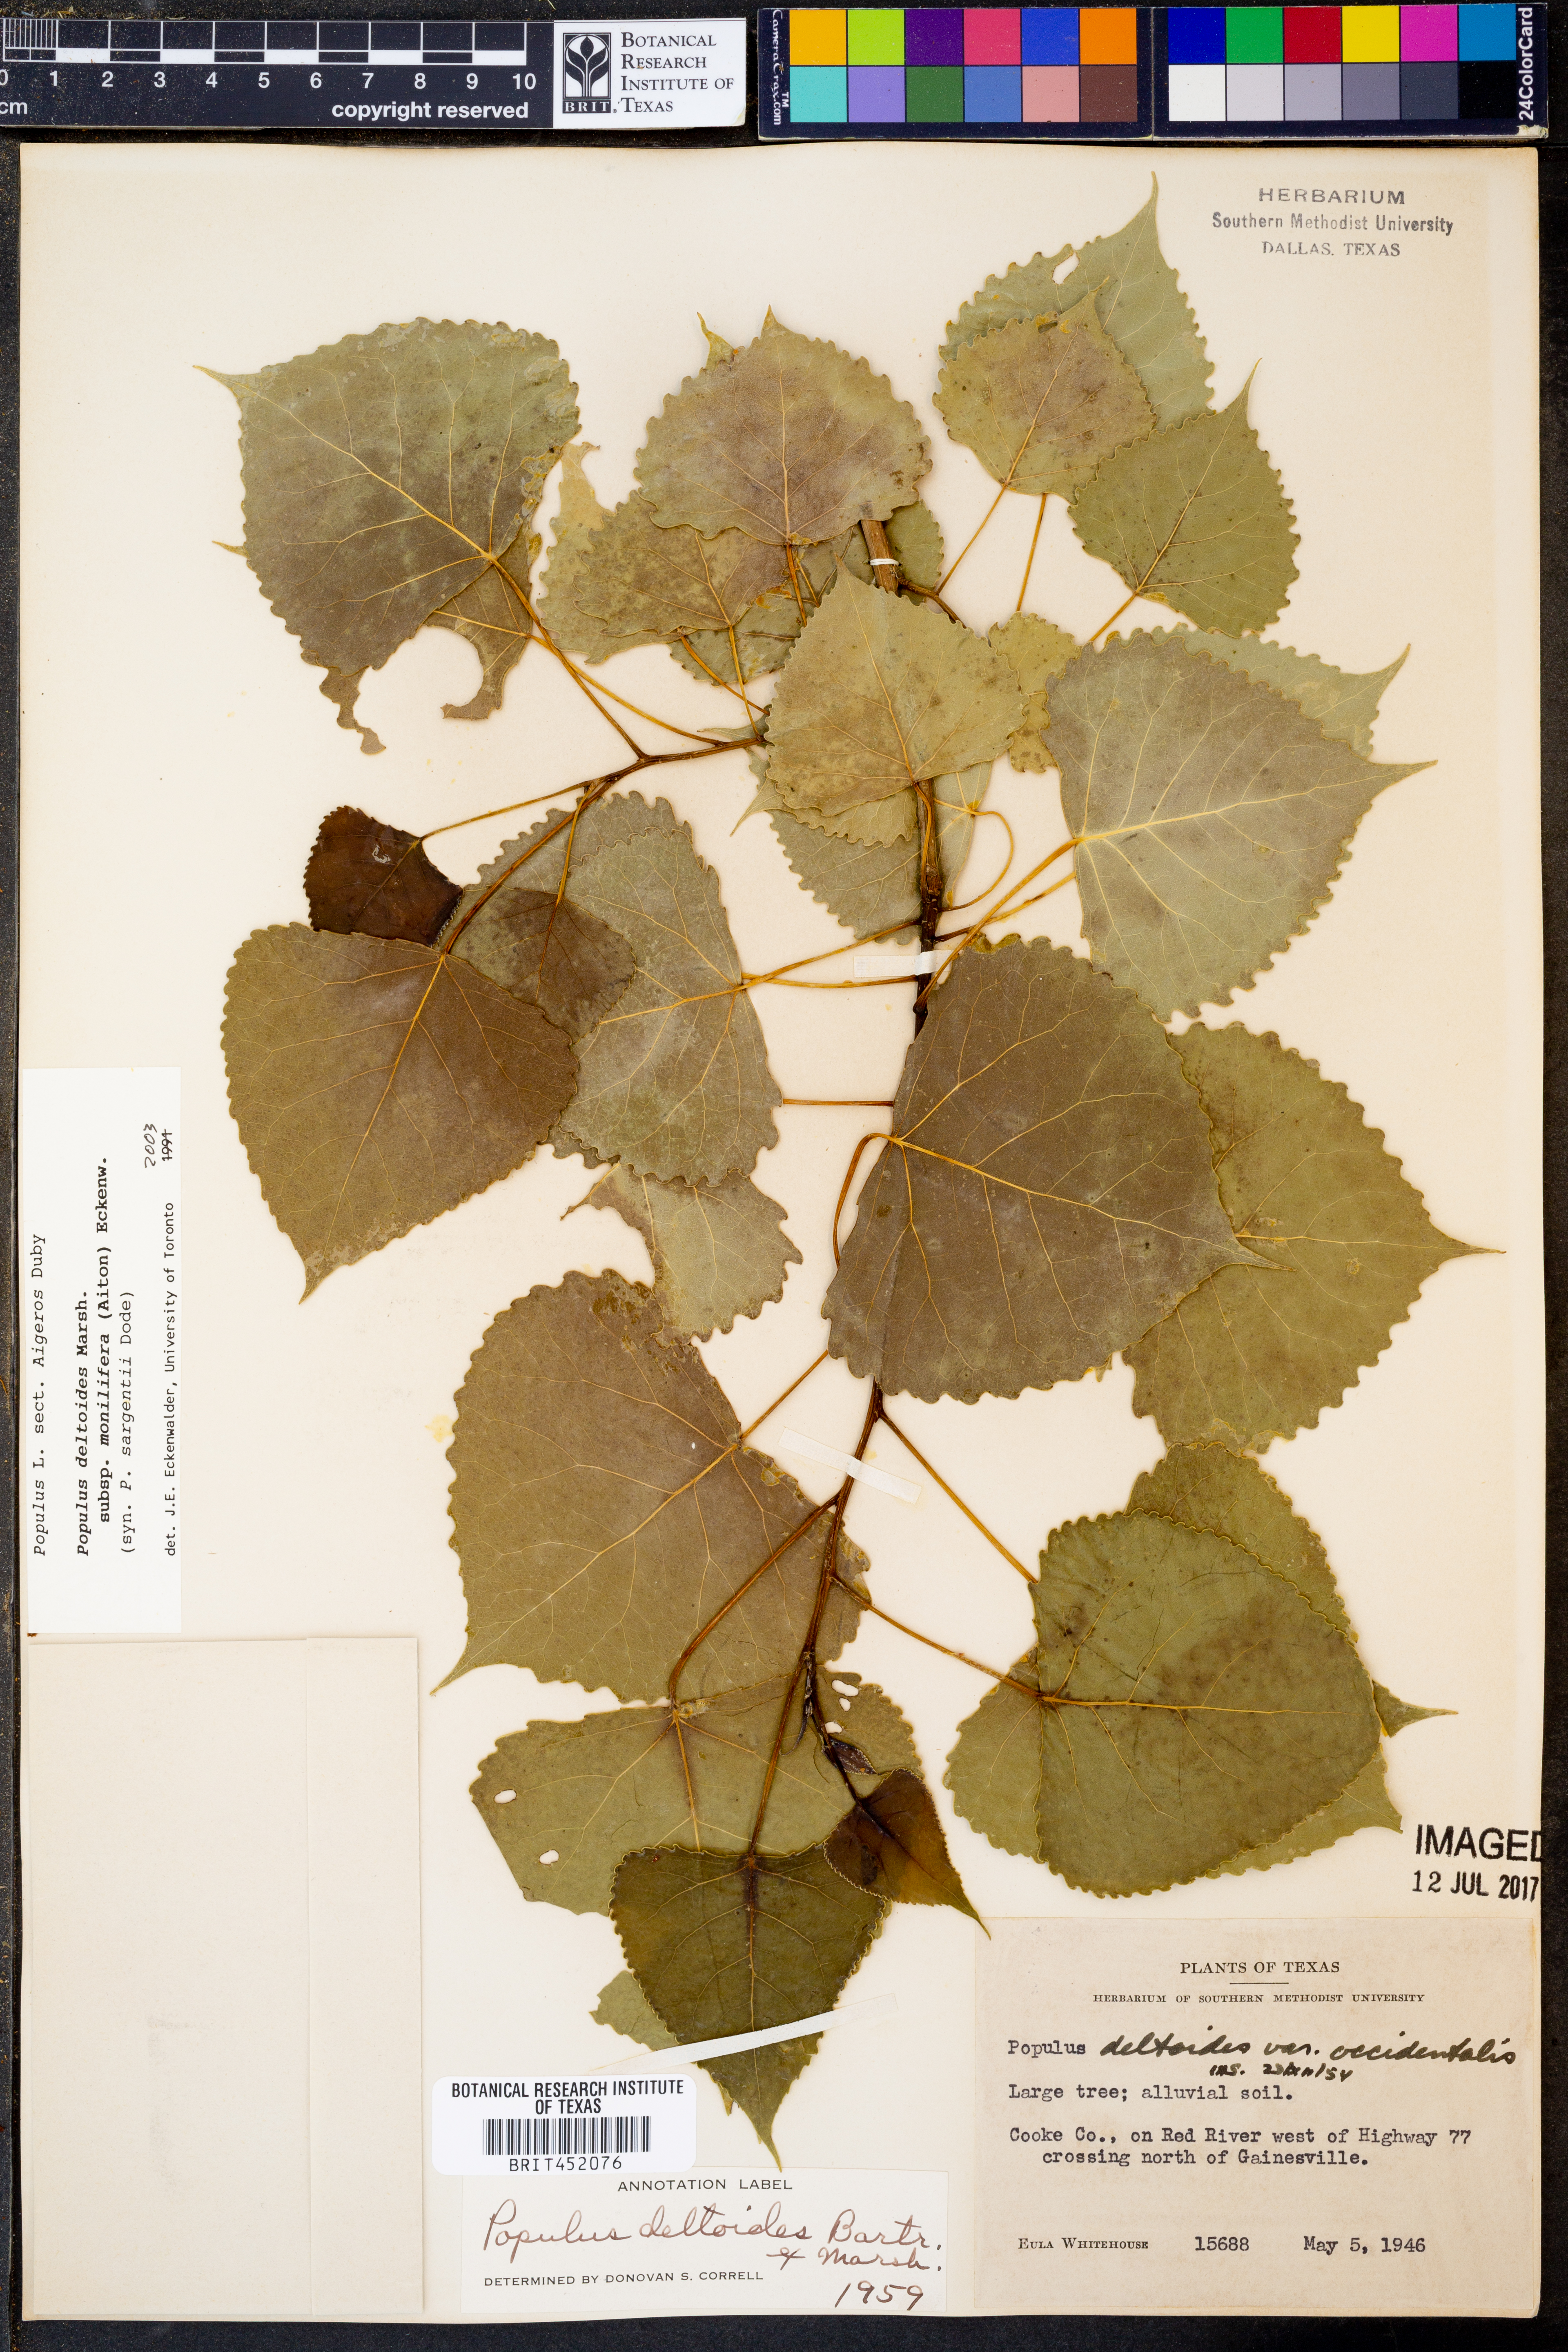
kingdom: Plantae
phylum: Tracheophyta
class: Magnoliopsida
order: Malpighiales
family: Salicaceae
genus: Populus
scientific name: Populus deltoides
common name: Eastern cottonwood
